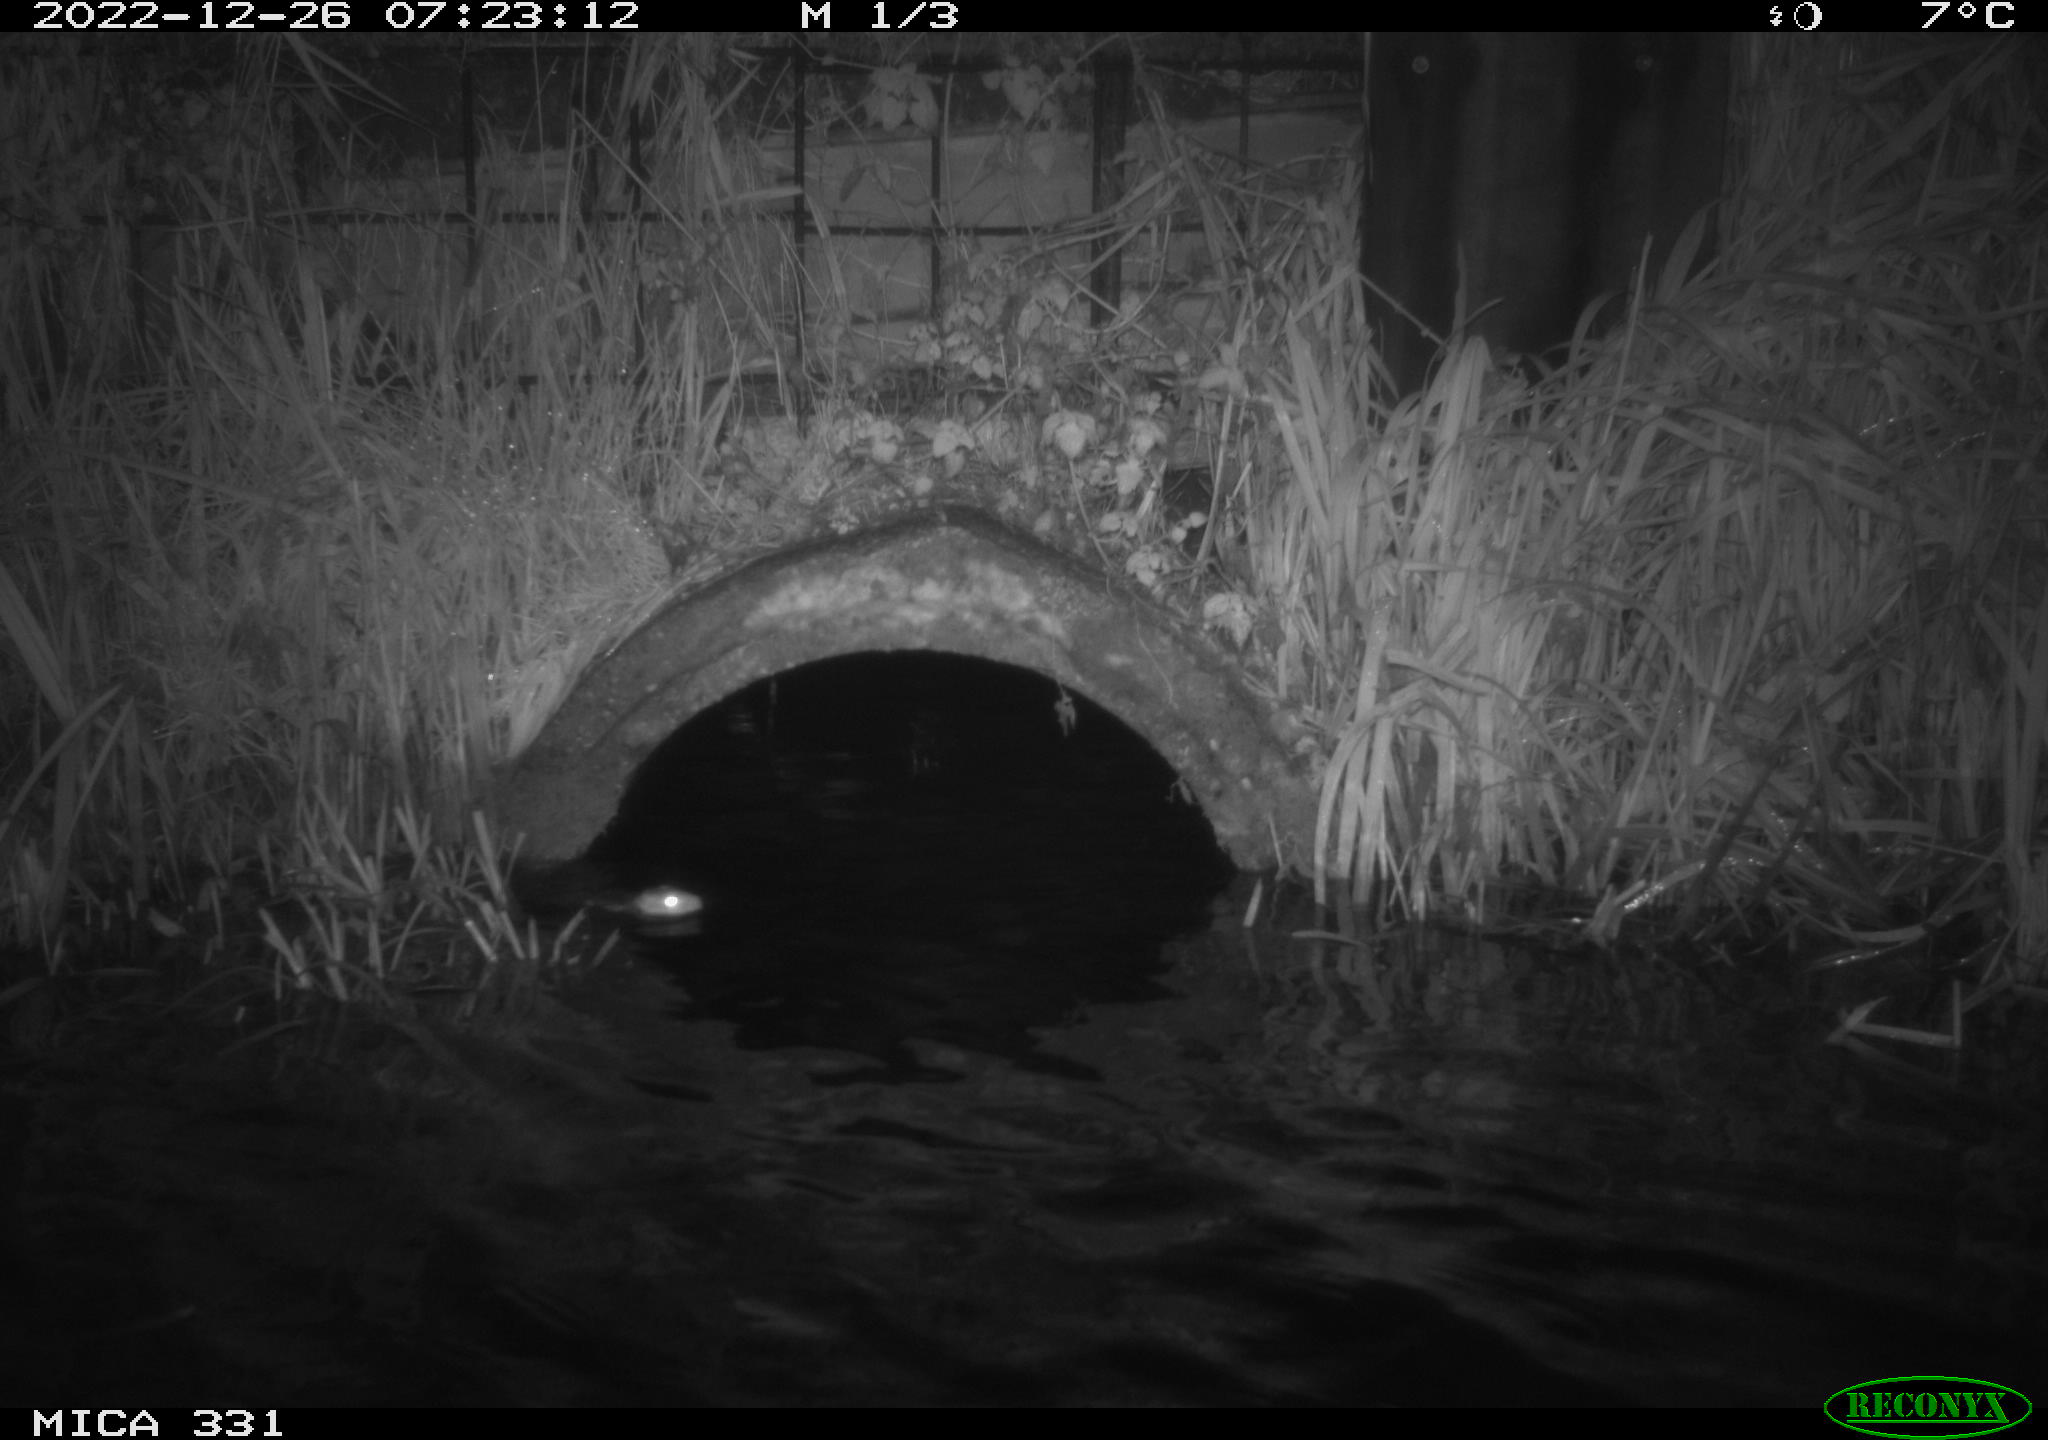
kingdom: Animalia
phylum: Chordata
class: Mammalia
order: Rodentia
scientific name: Rodentia
